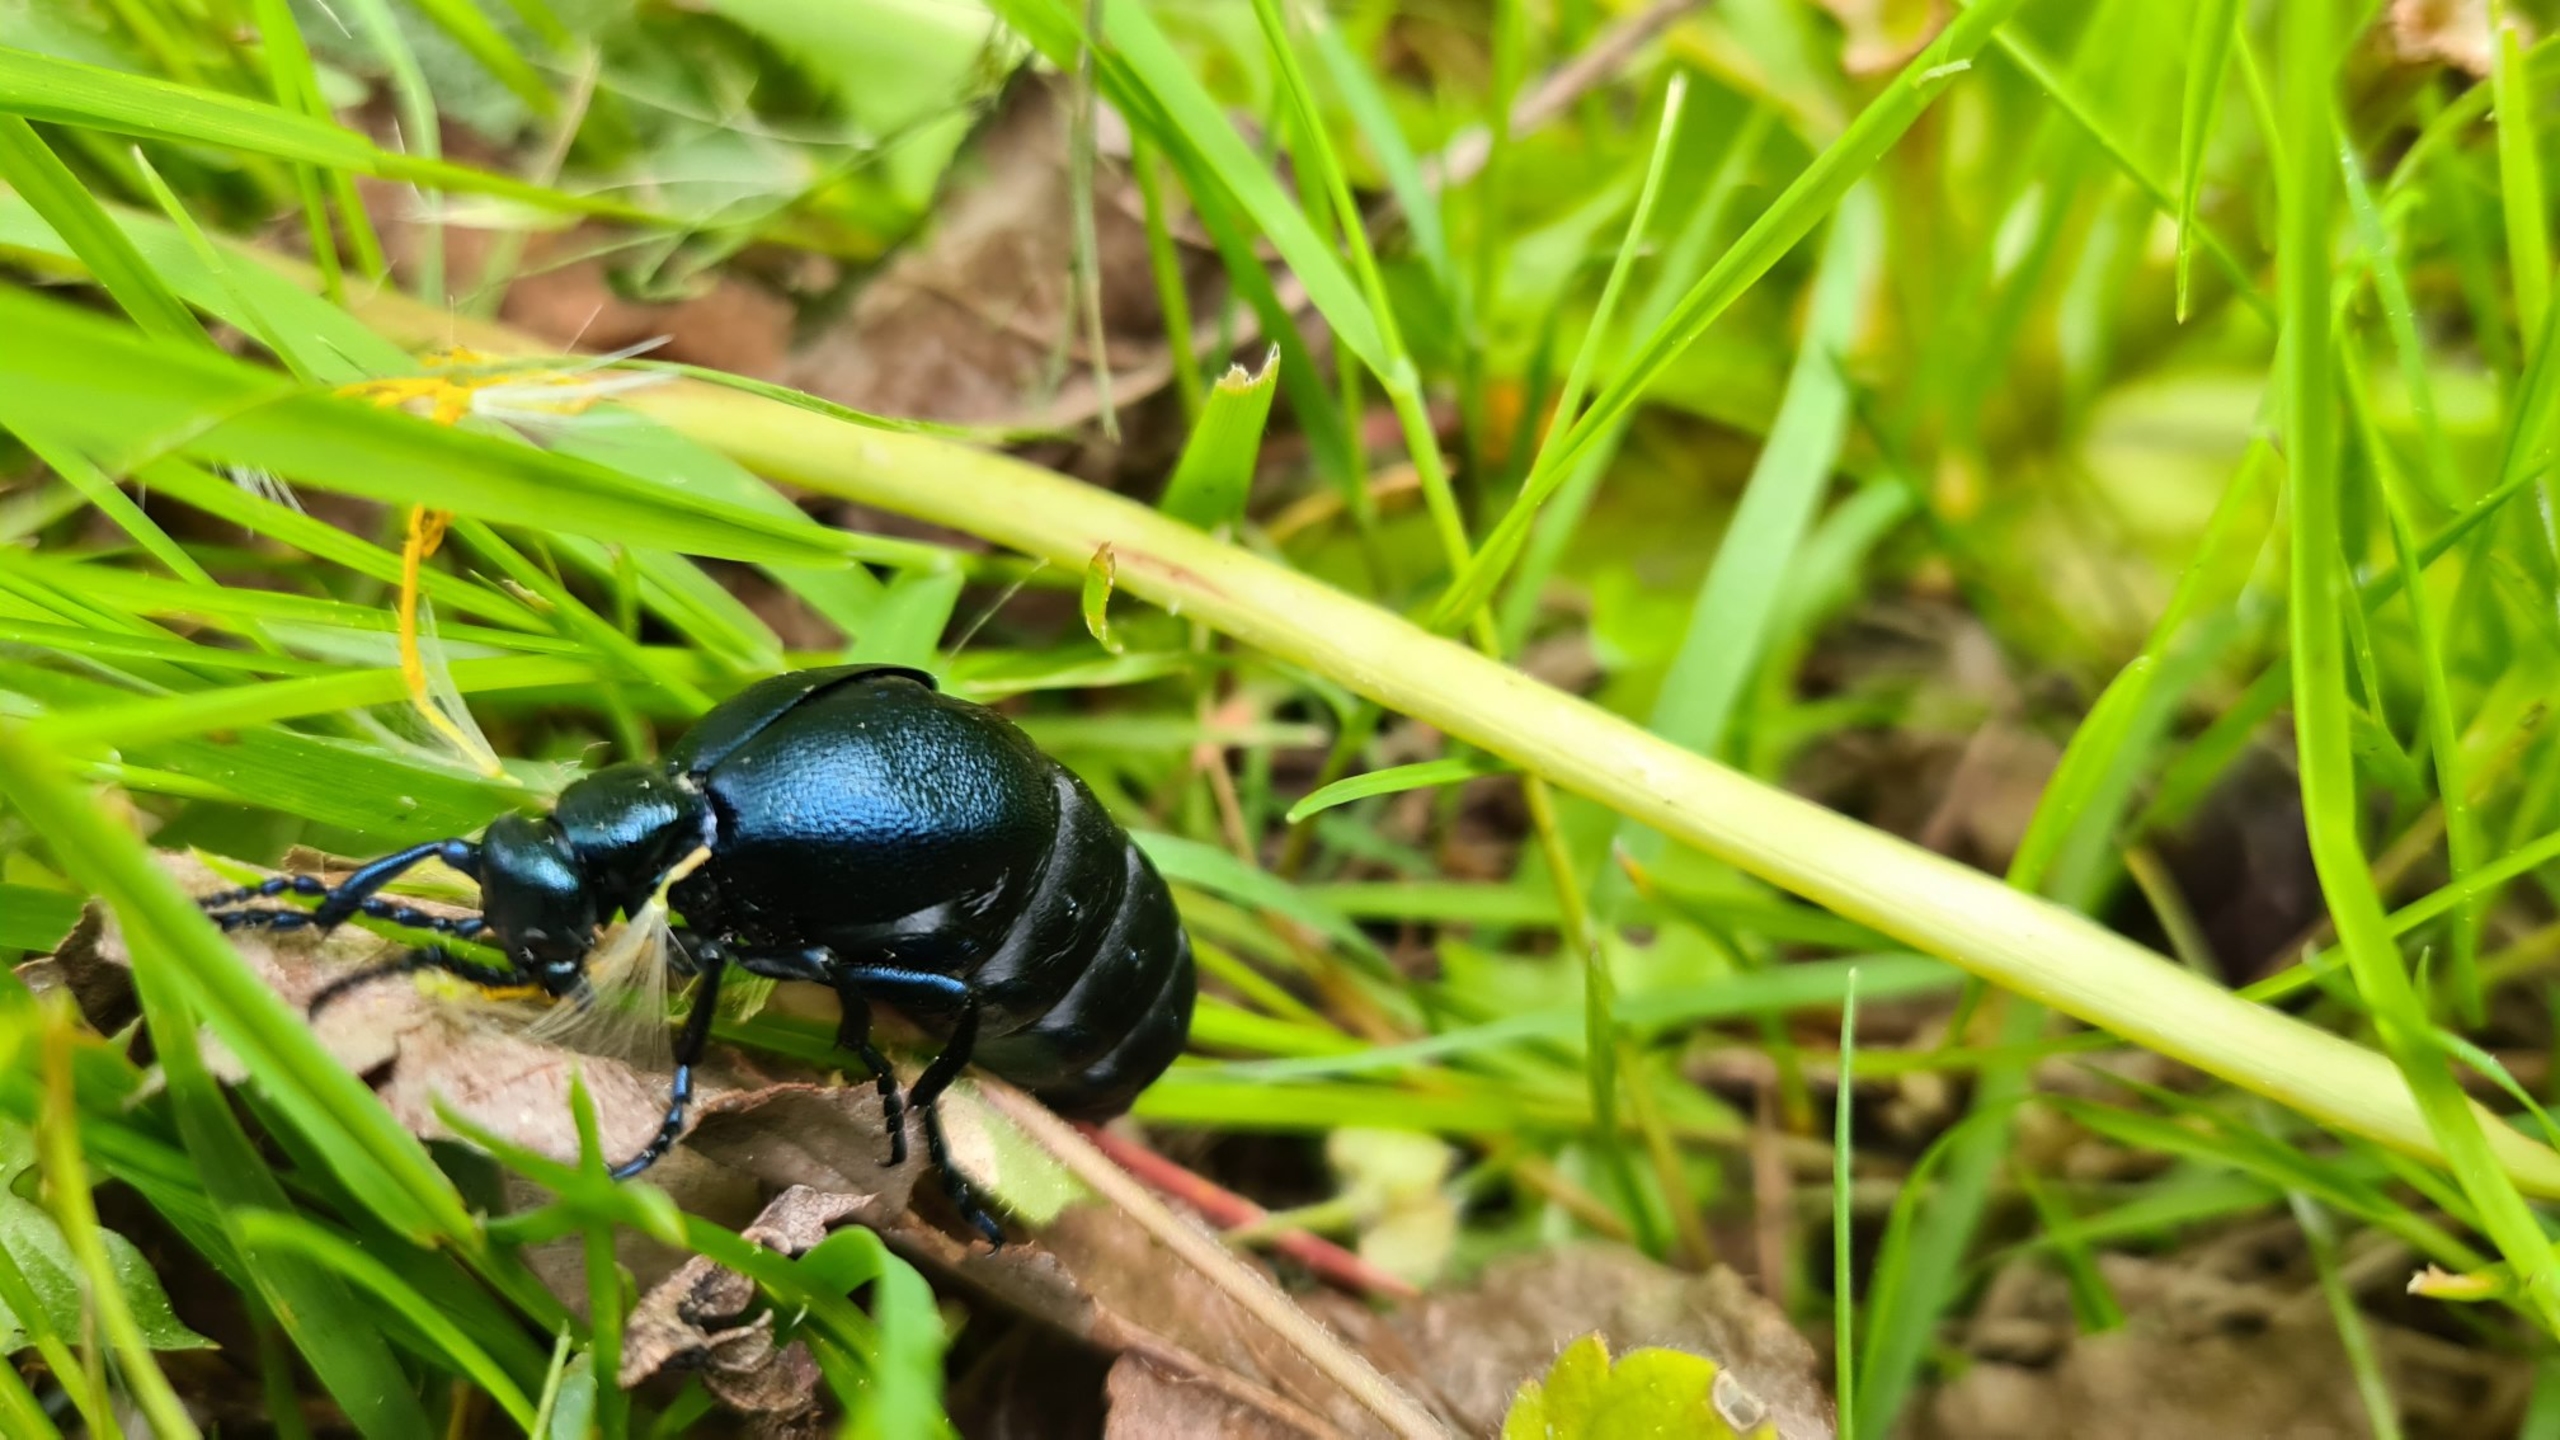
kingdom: Animalia
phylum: Arthropoda
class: Insecta
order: Coleoptera
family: Meloidae
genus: Meloe
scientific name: Meloe violaceus
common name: Blå oliebille
